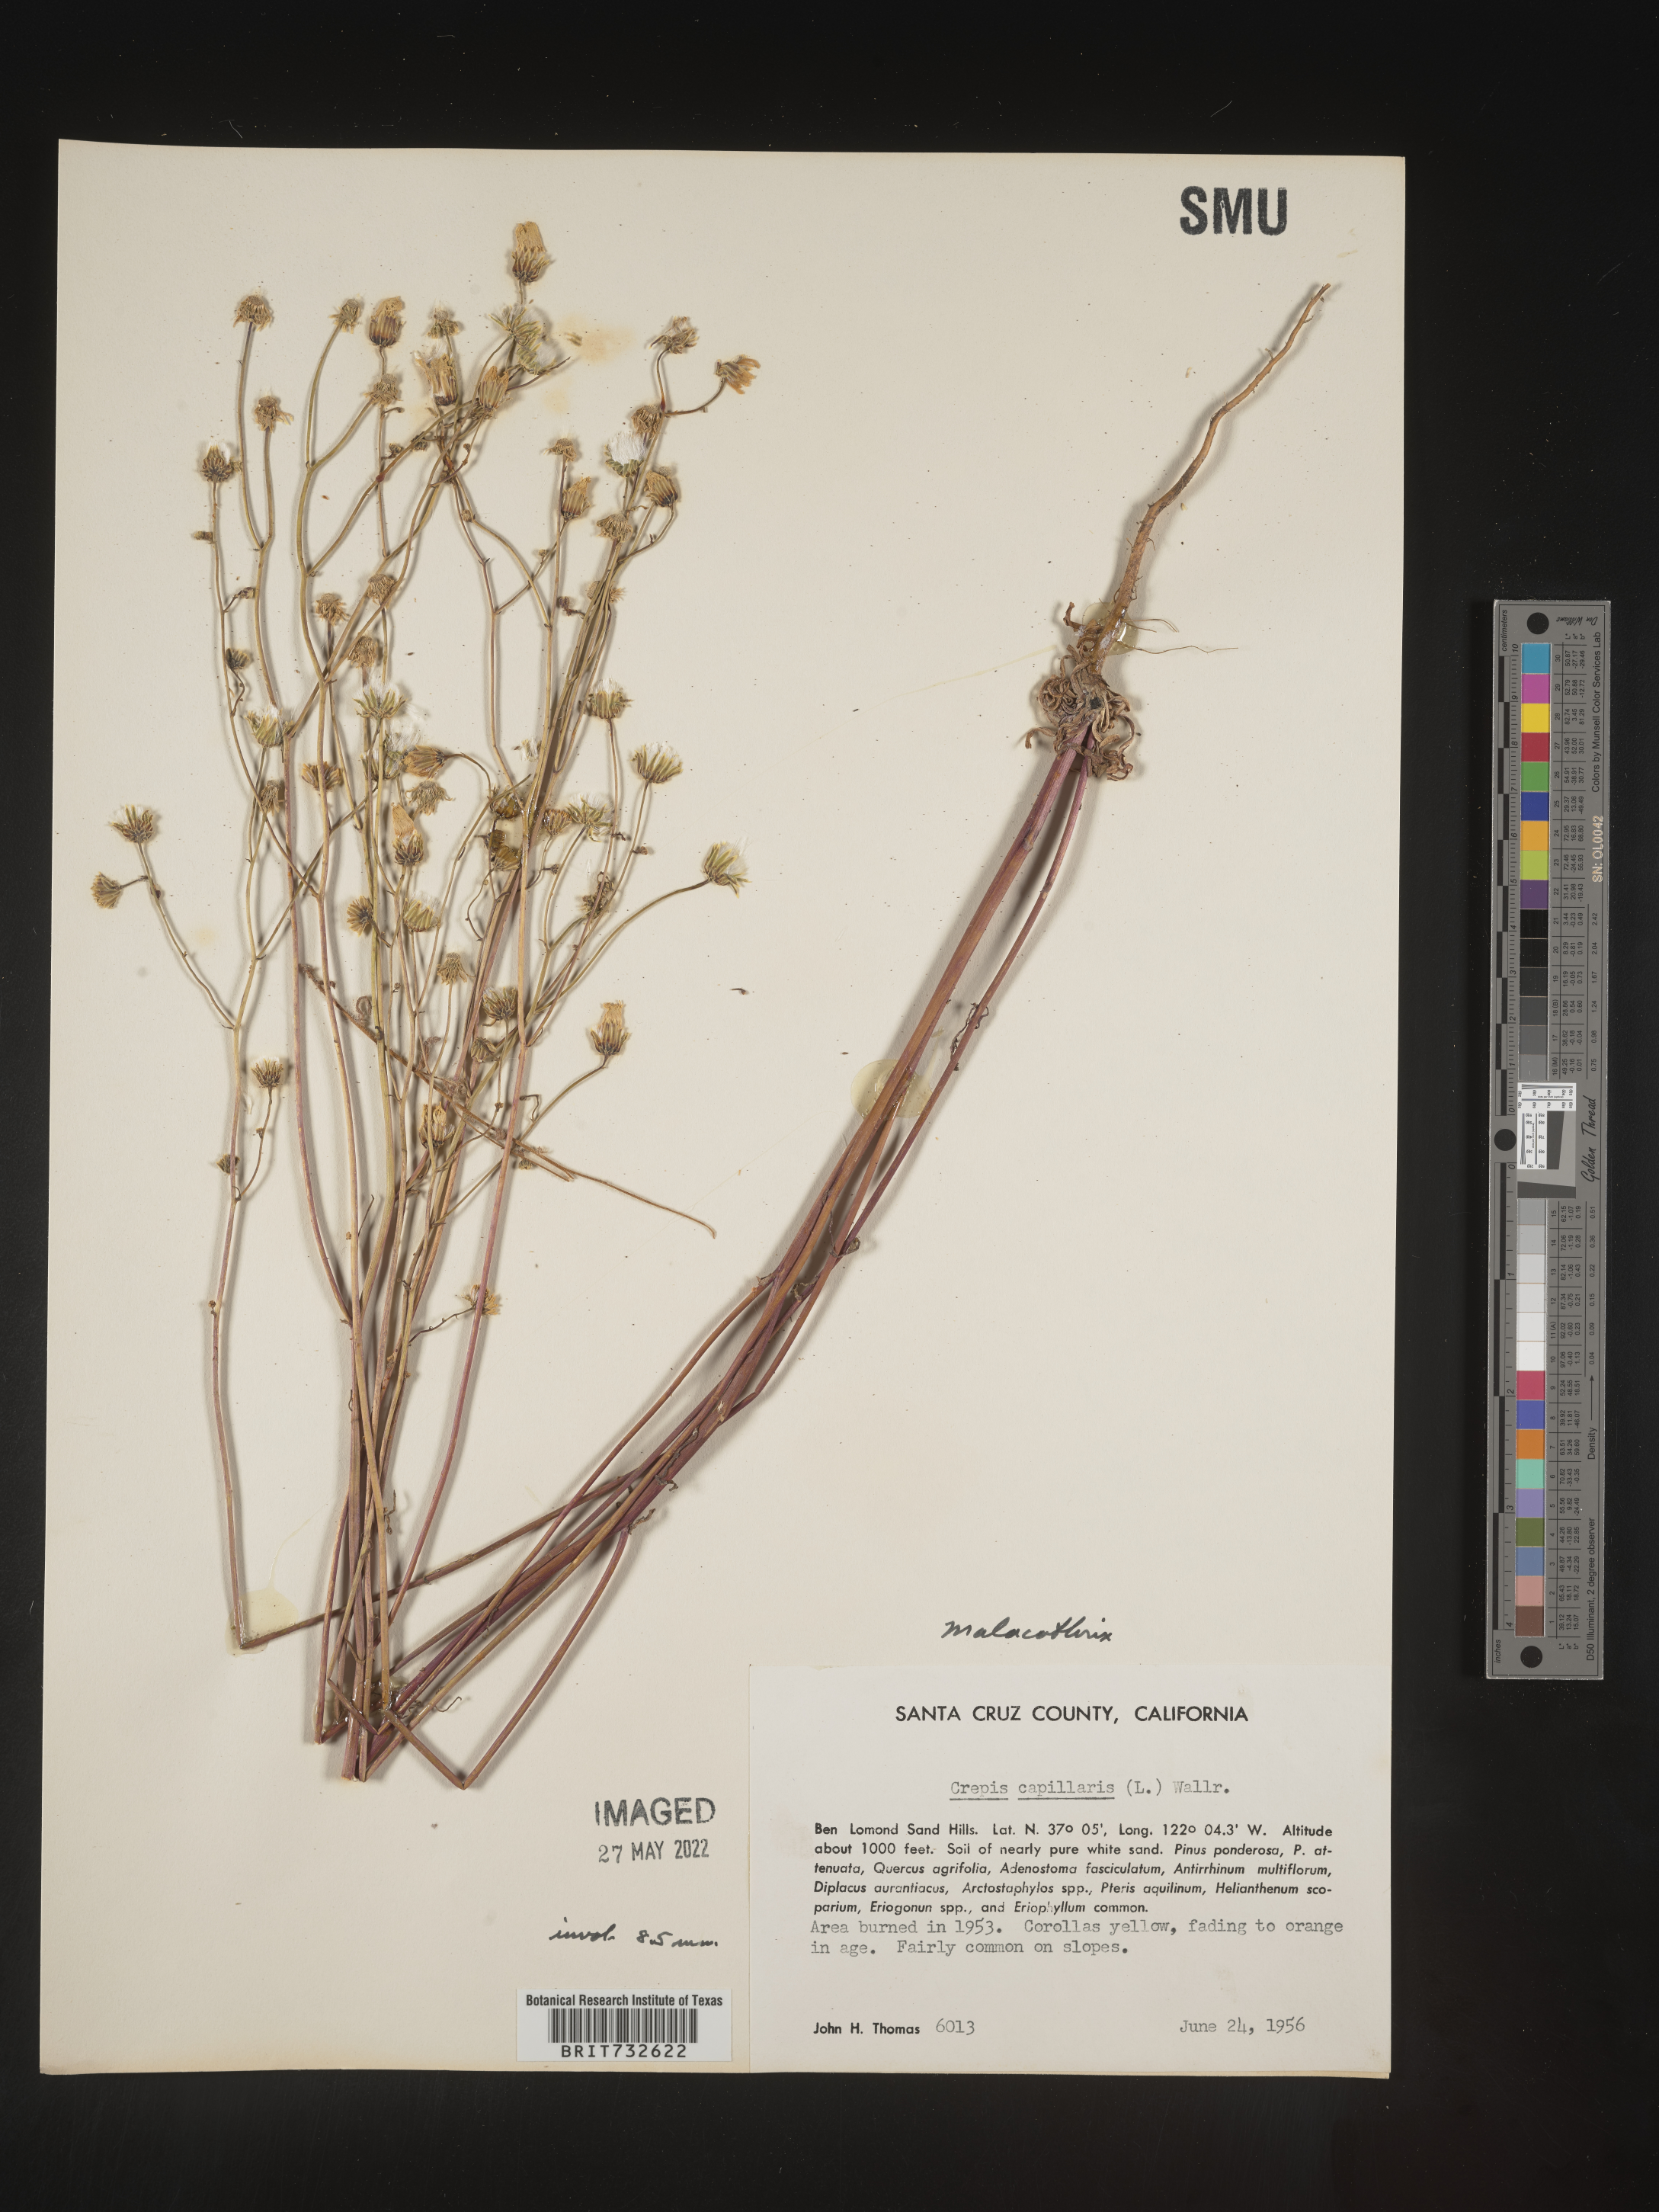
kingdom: Plantae
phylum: Tracheophyta
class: Magnoliopsida
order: Asterales
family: Asteraceae
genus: Malacothrix
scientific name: Malacothrix
